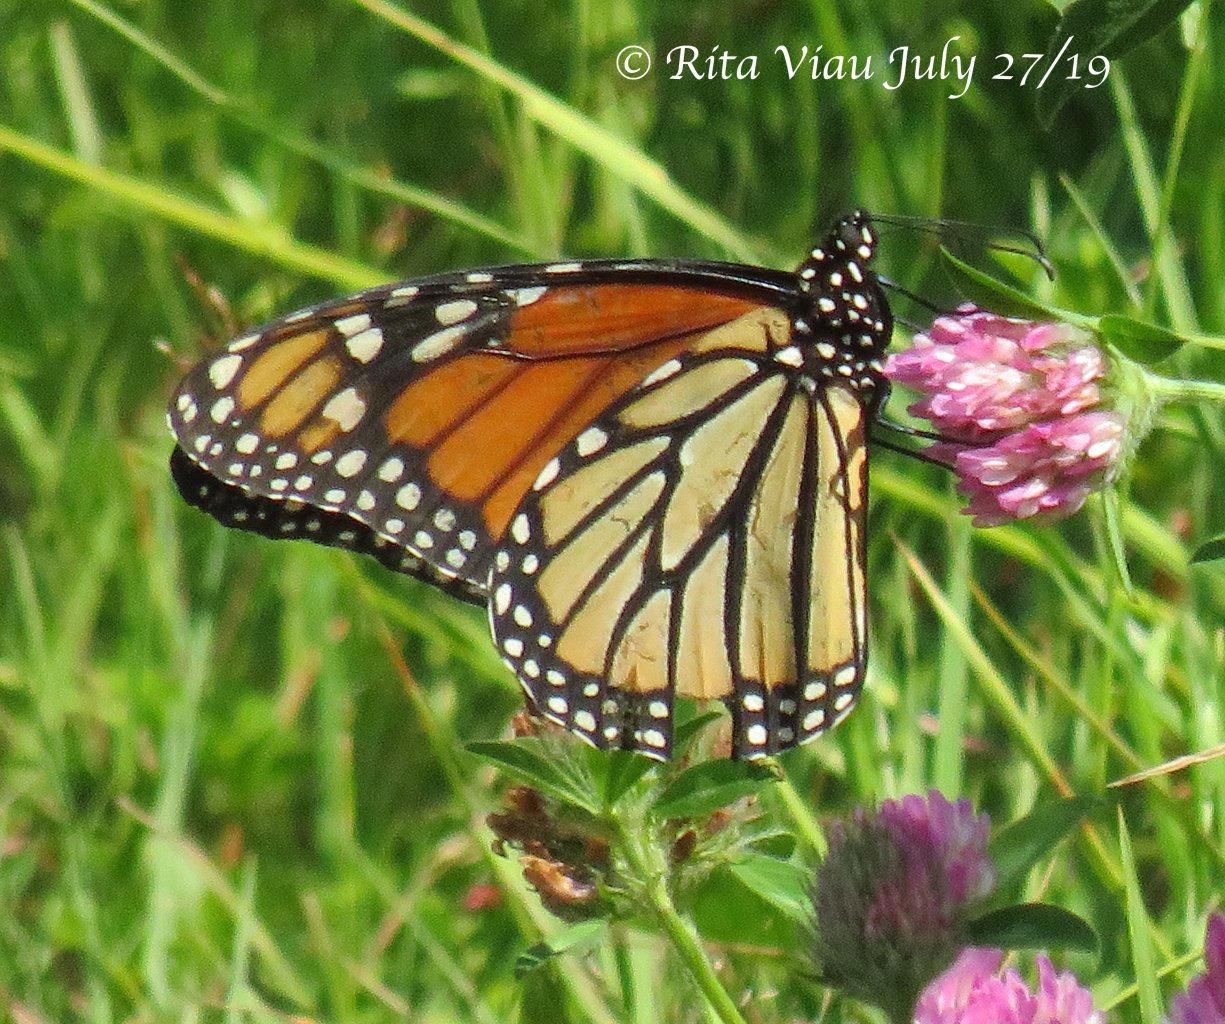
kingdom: Animalia
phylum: Arthropoda
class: Insecta
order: Lepidoptera
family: Nymphalidae
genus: Danaus
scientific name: Danaus plexippus
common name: Monarch
